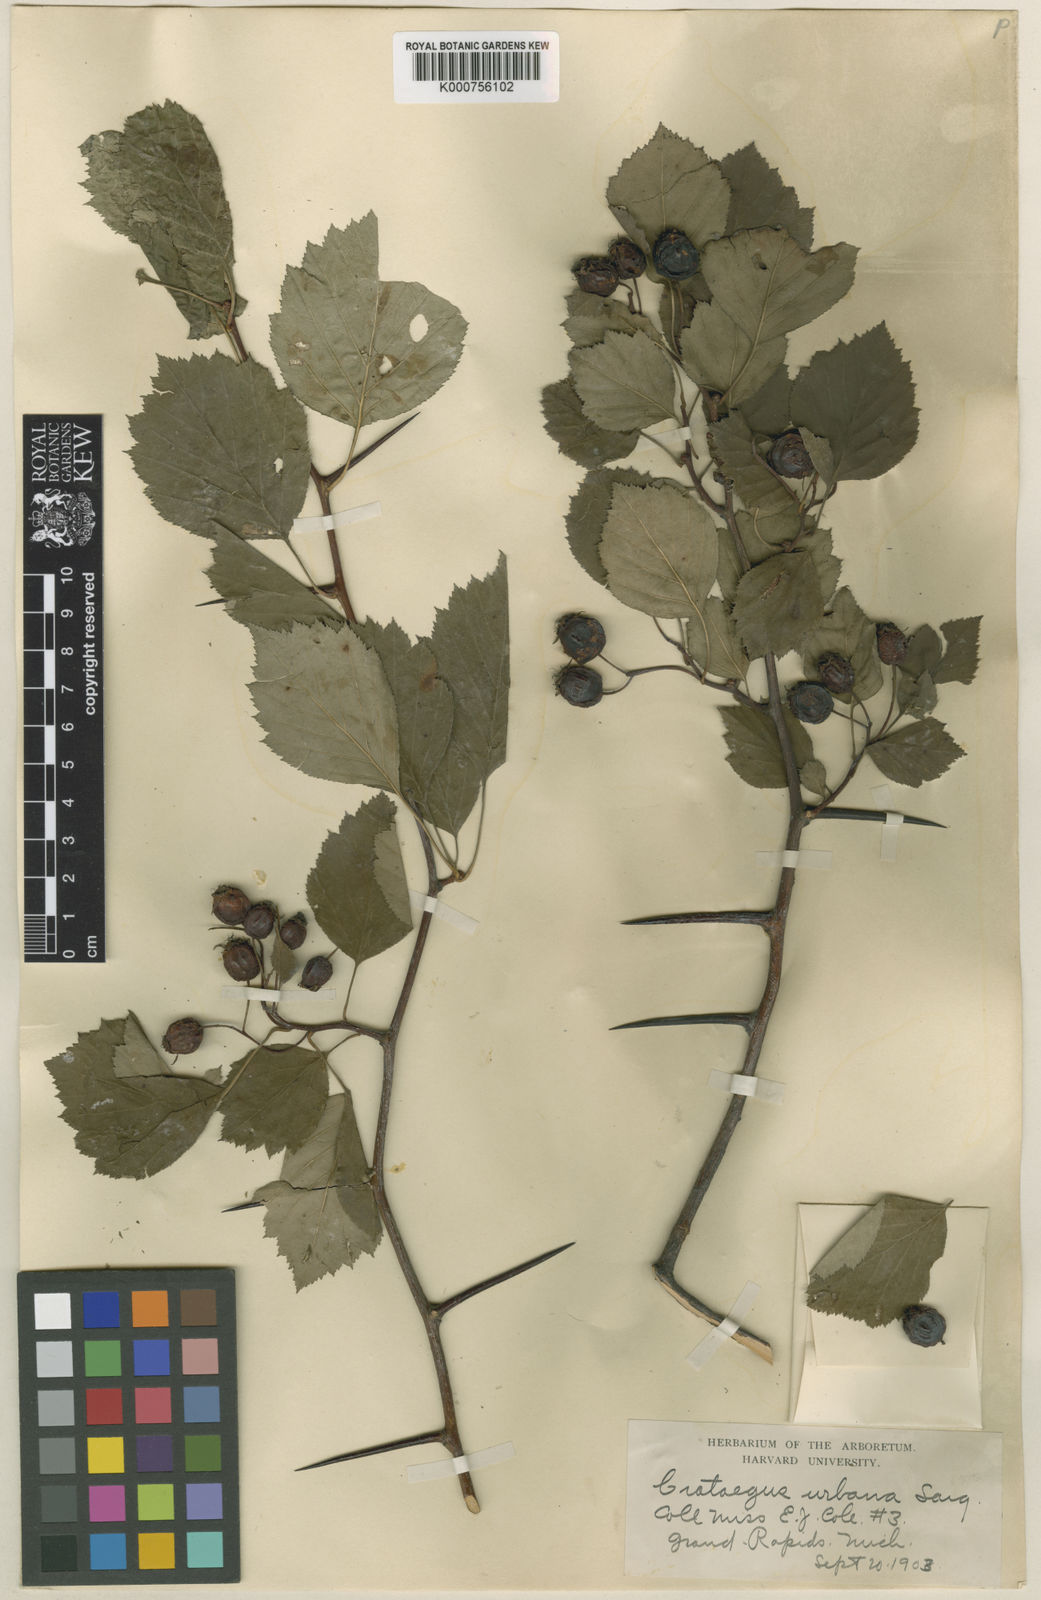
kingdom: Plantae
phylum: Tracheophyta
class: Magnoliopsida
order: Rosales
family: Rosaceae
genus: Crataegus
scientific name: Crataegus urbana
